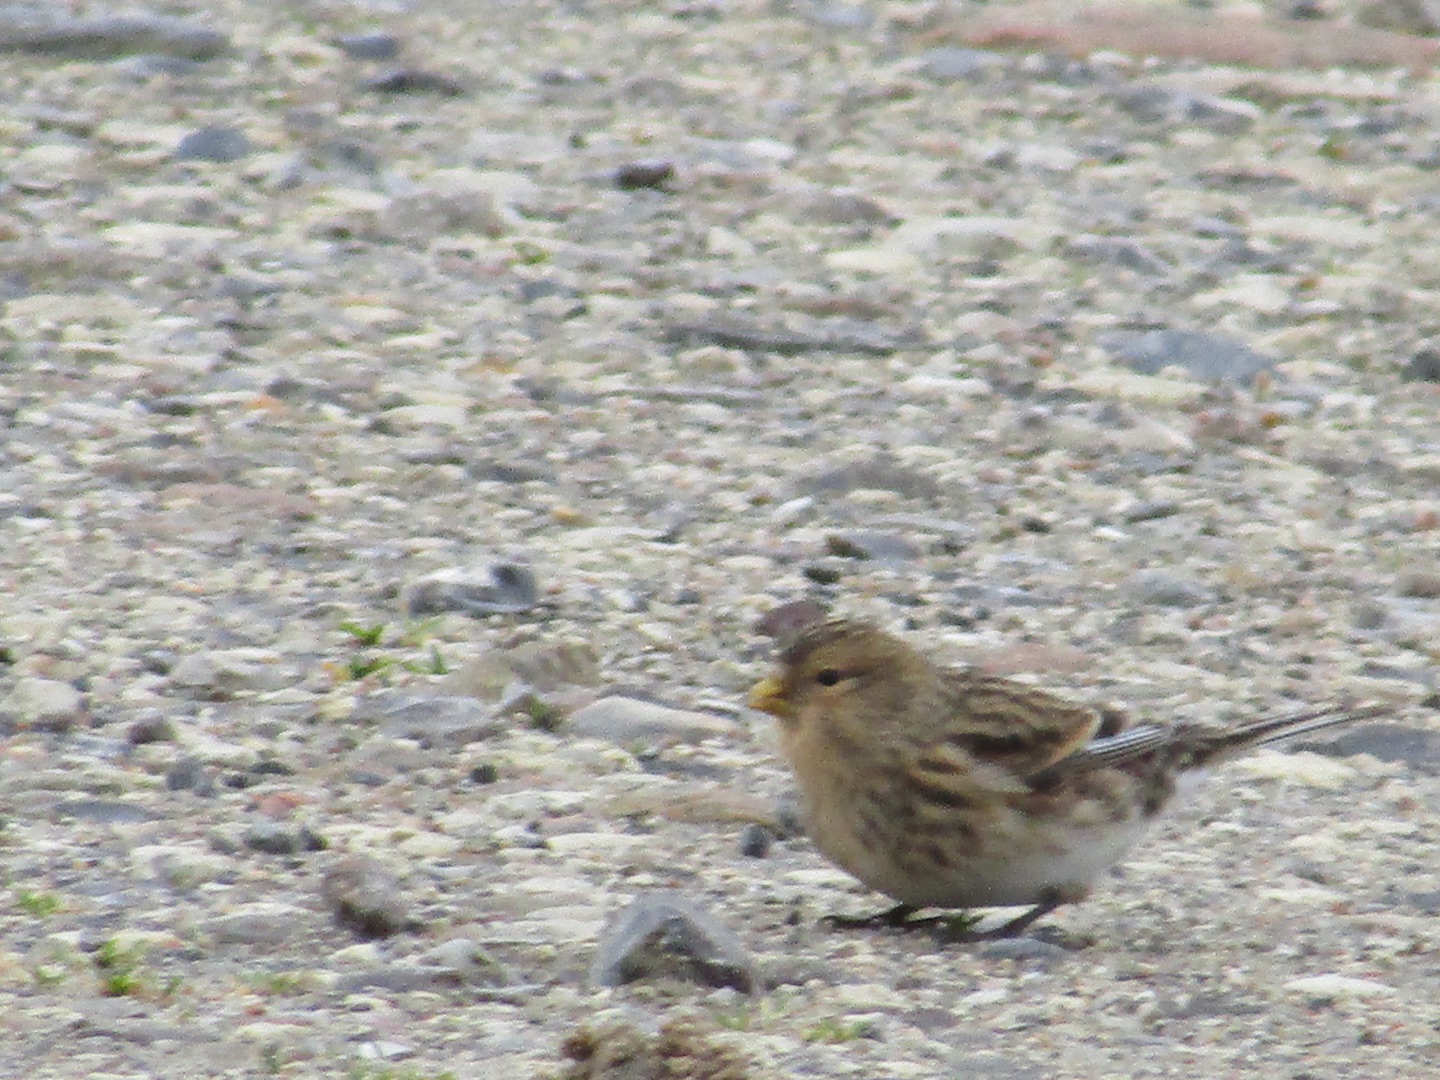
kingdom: Animalia
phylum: Chordata
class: Aves
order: Passeriformes
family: Fringillidae
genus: Linaria
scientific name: Linaria flavirostris
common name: Bjergirisk
